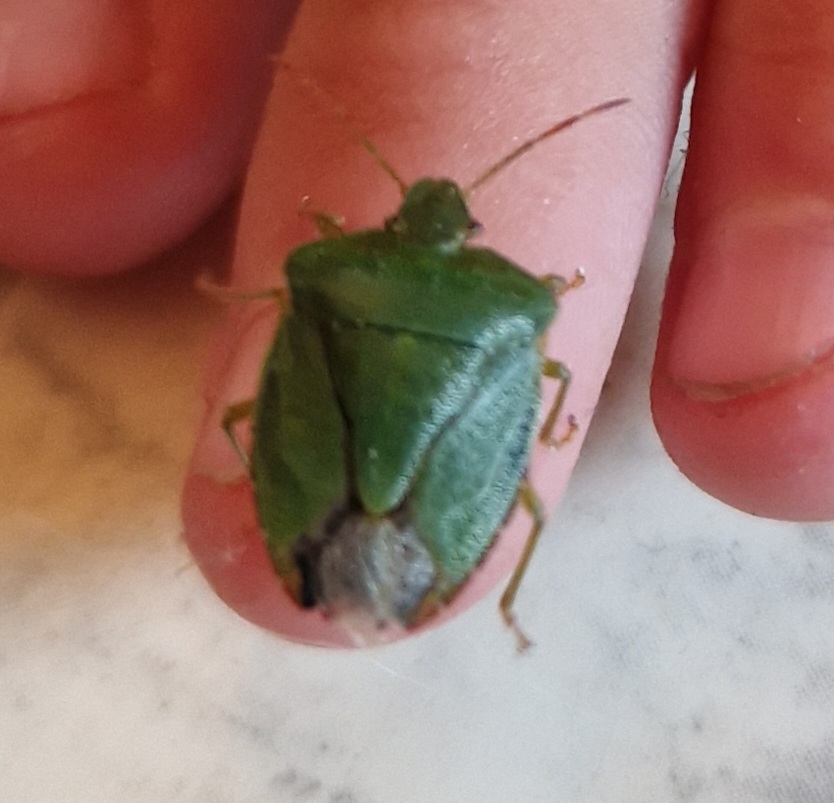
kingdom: Animalia
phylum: Arthropoda
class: Insecta
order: Hemiptera
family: Pentatomidae
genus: Palomena
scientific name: Palomena prasina
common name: Grøn bredtæge
